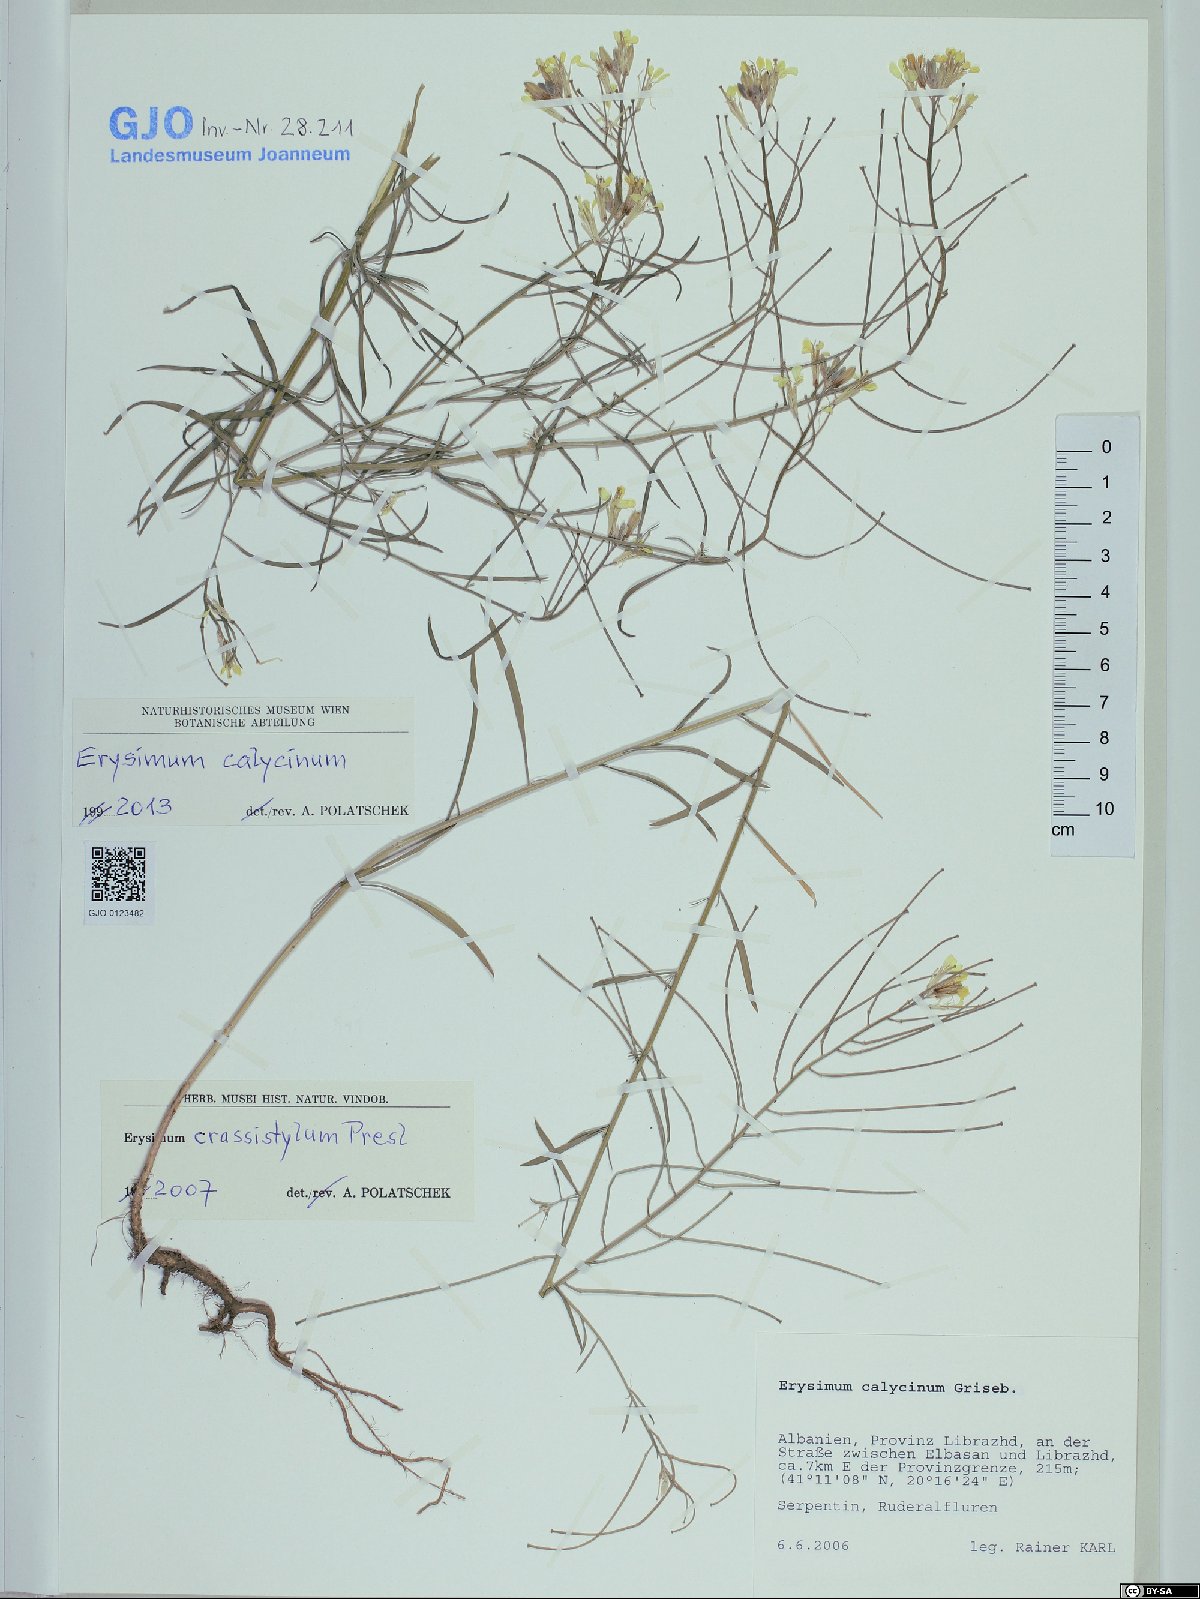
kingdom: Plantae
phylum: Tracheophyta
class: Magnoliopsida
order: Brassicales
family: Brassicaceae
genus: Erysimum
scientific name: Erysimum calycinum
